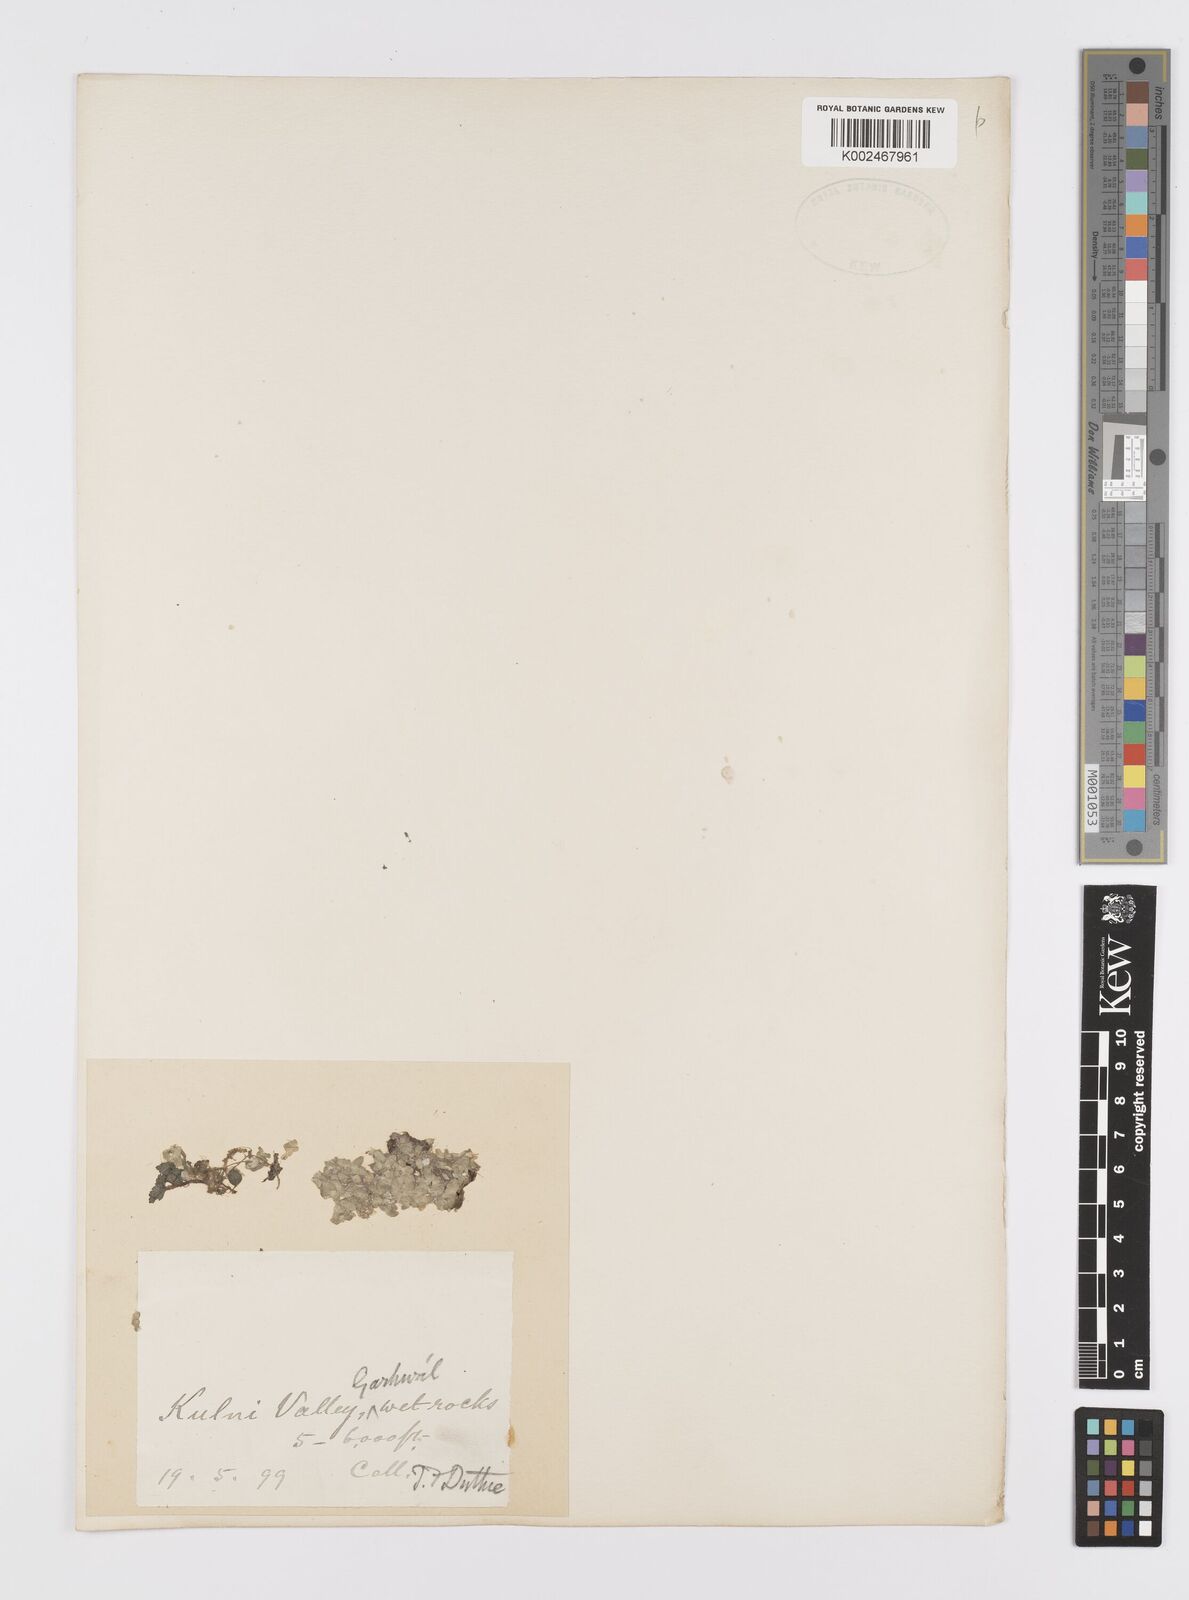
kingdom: Plantae
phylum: Tracheophyta
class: Liliopsida
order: Alismatales
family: Araceae
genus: Lemna
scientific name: Lemna
